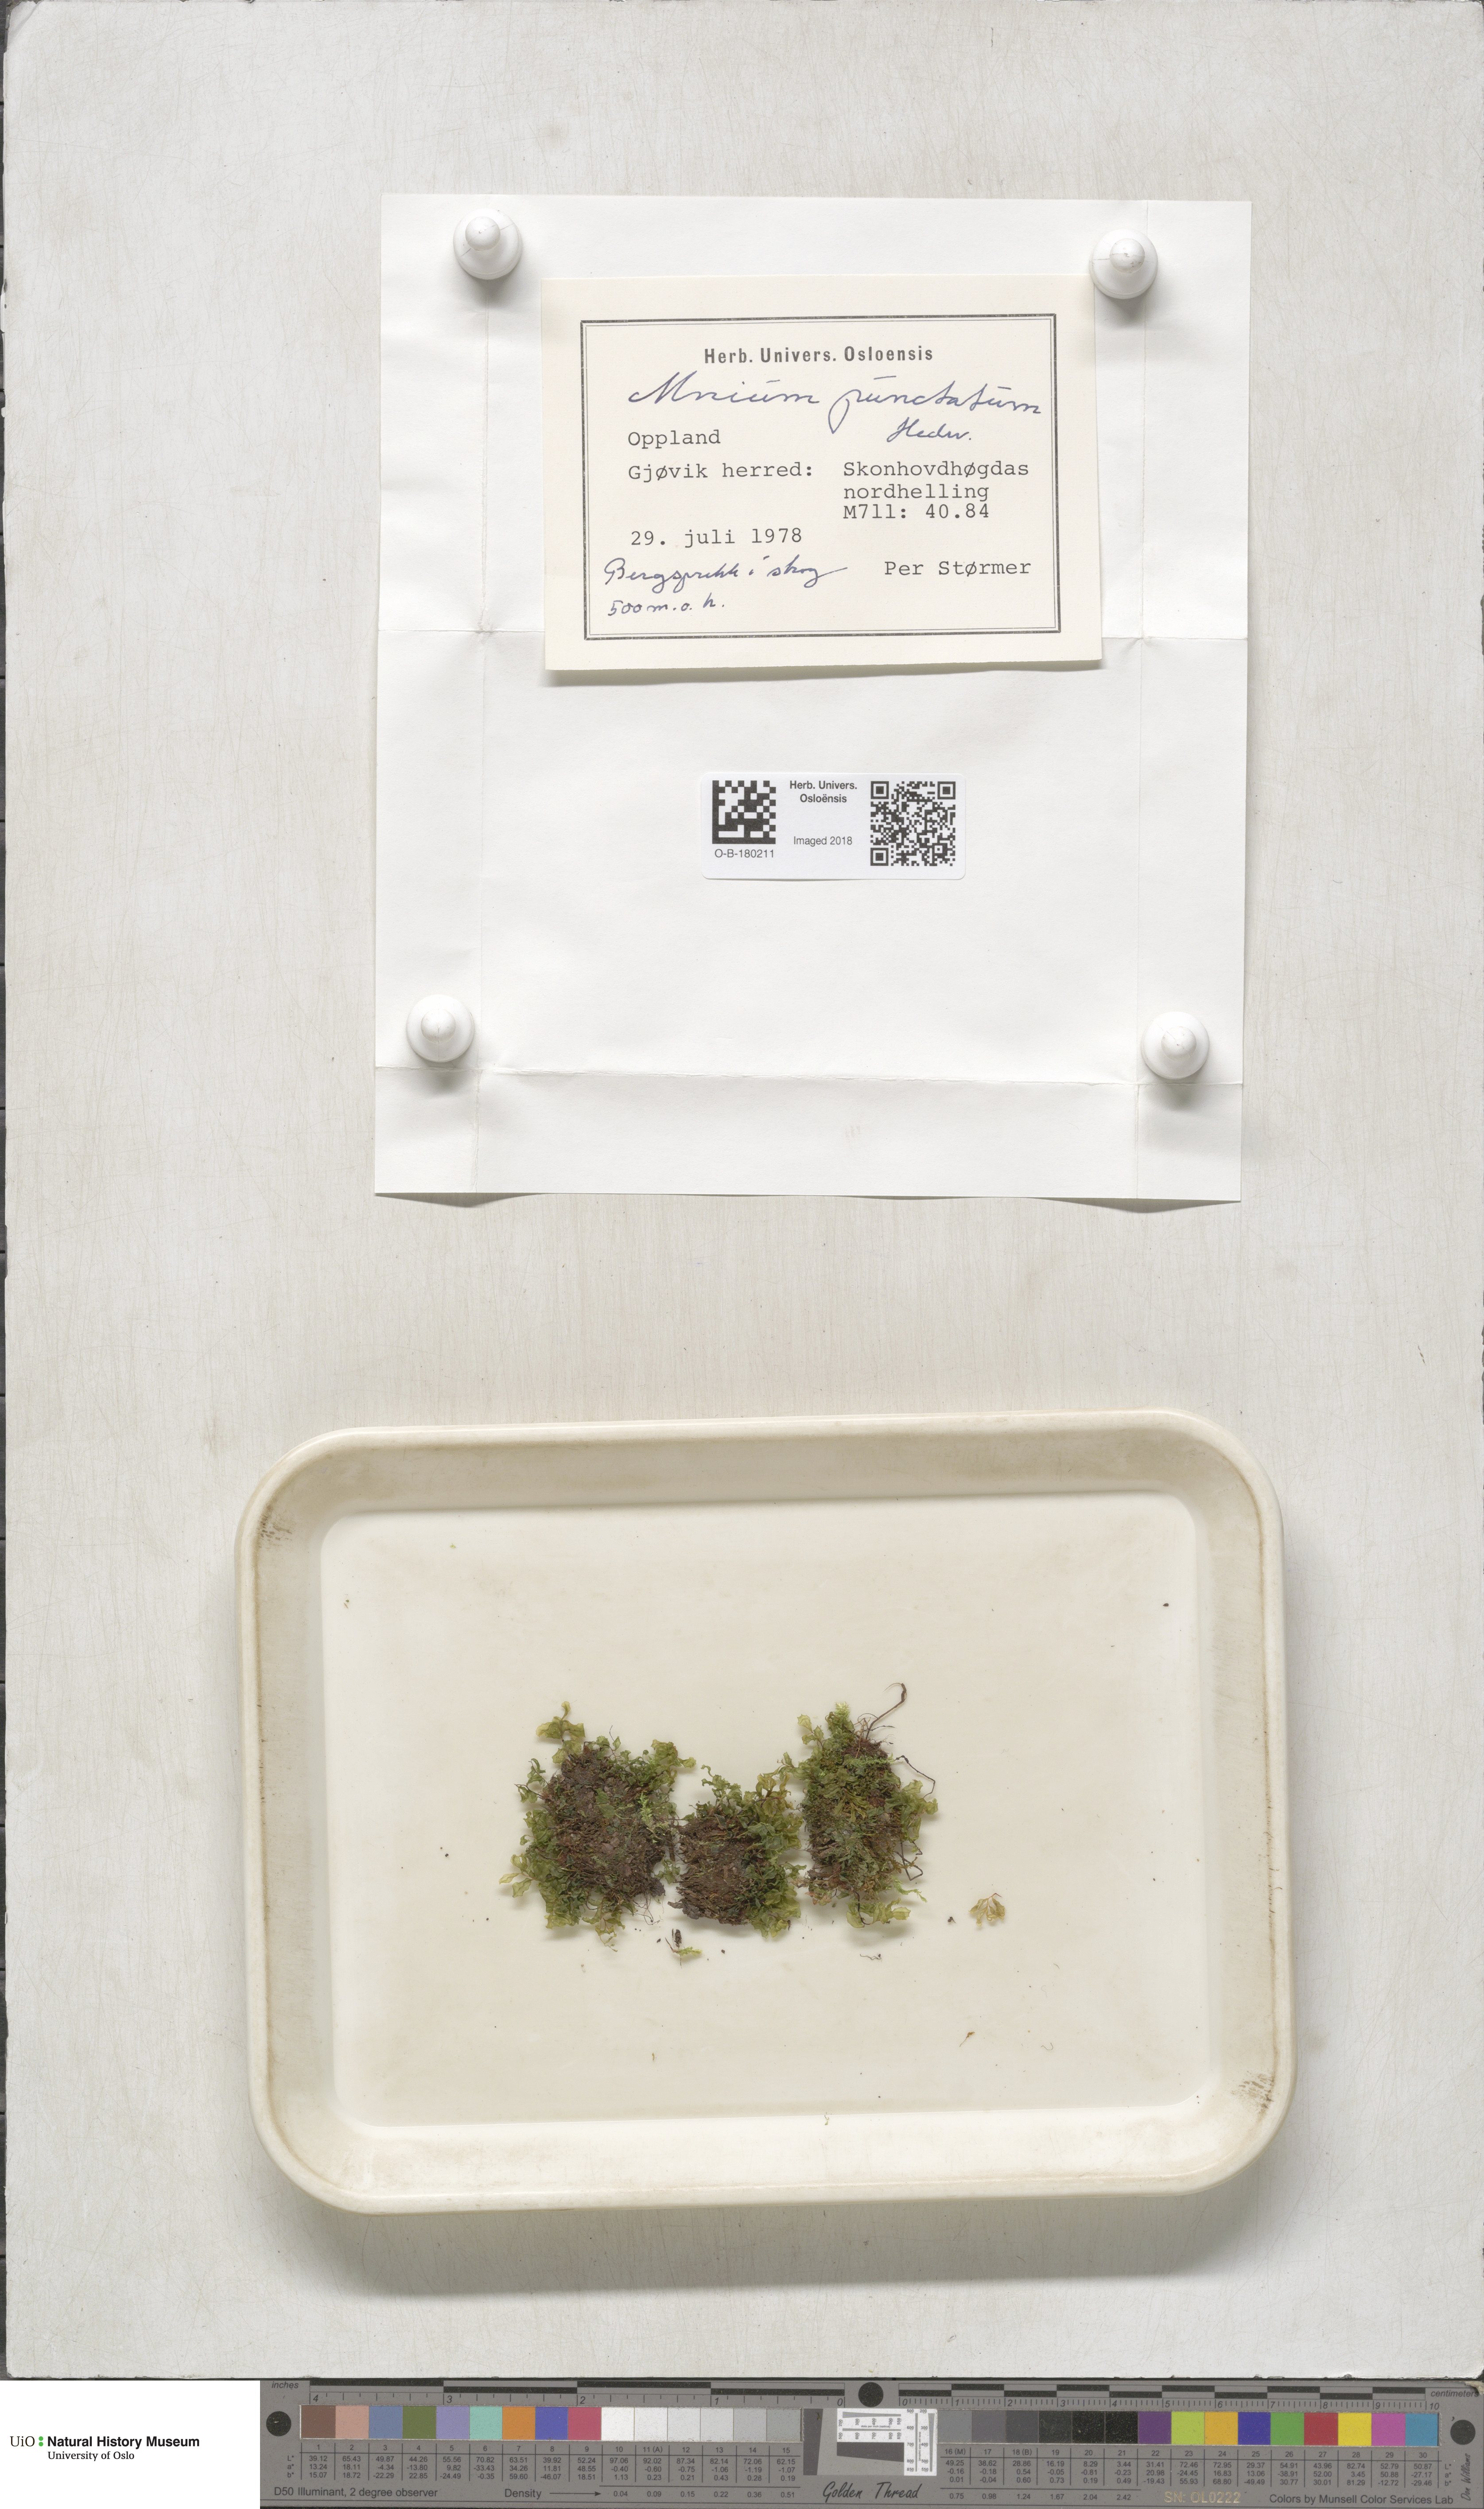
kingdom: Plantae
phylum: Bryophyta
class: Bryopsida
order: Bryales
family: Mniaceae
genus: Rhizomnium
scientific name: Rhizomnium punctatum
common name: Dotted leafy moss
